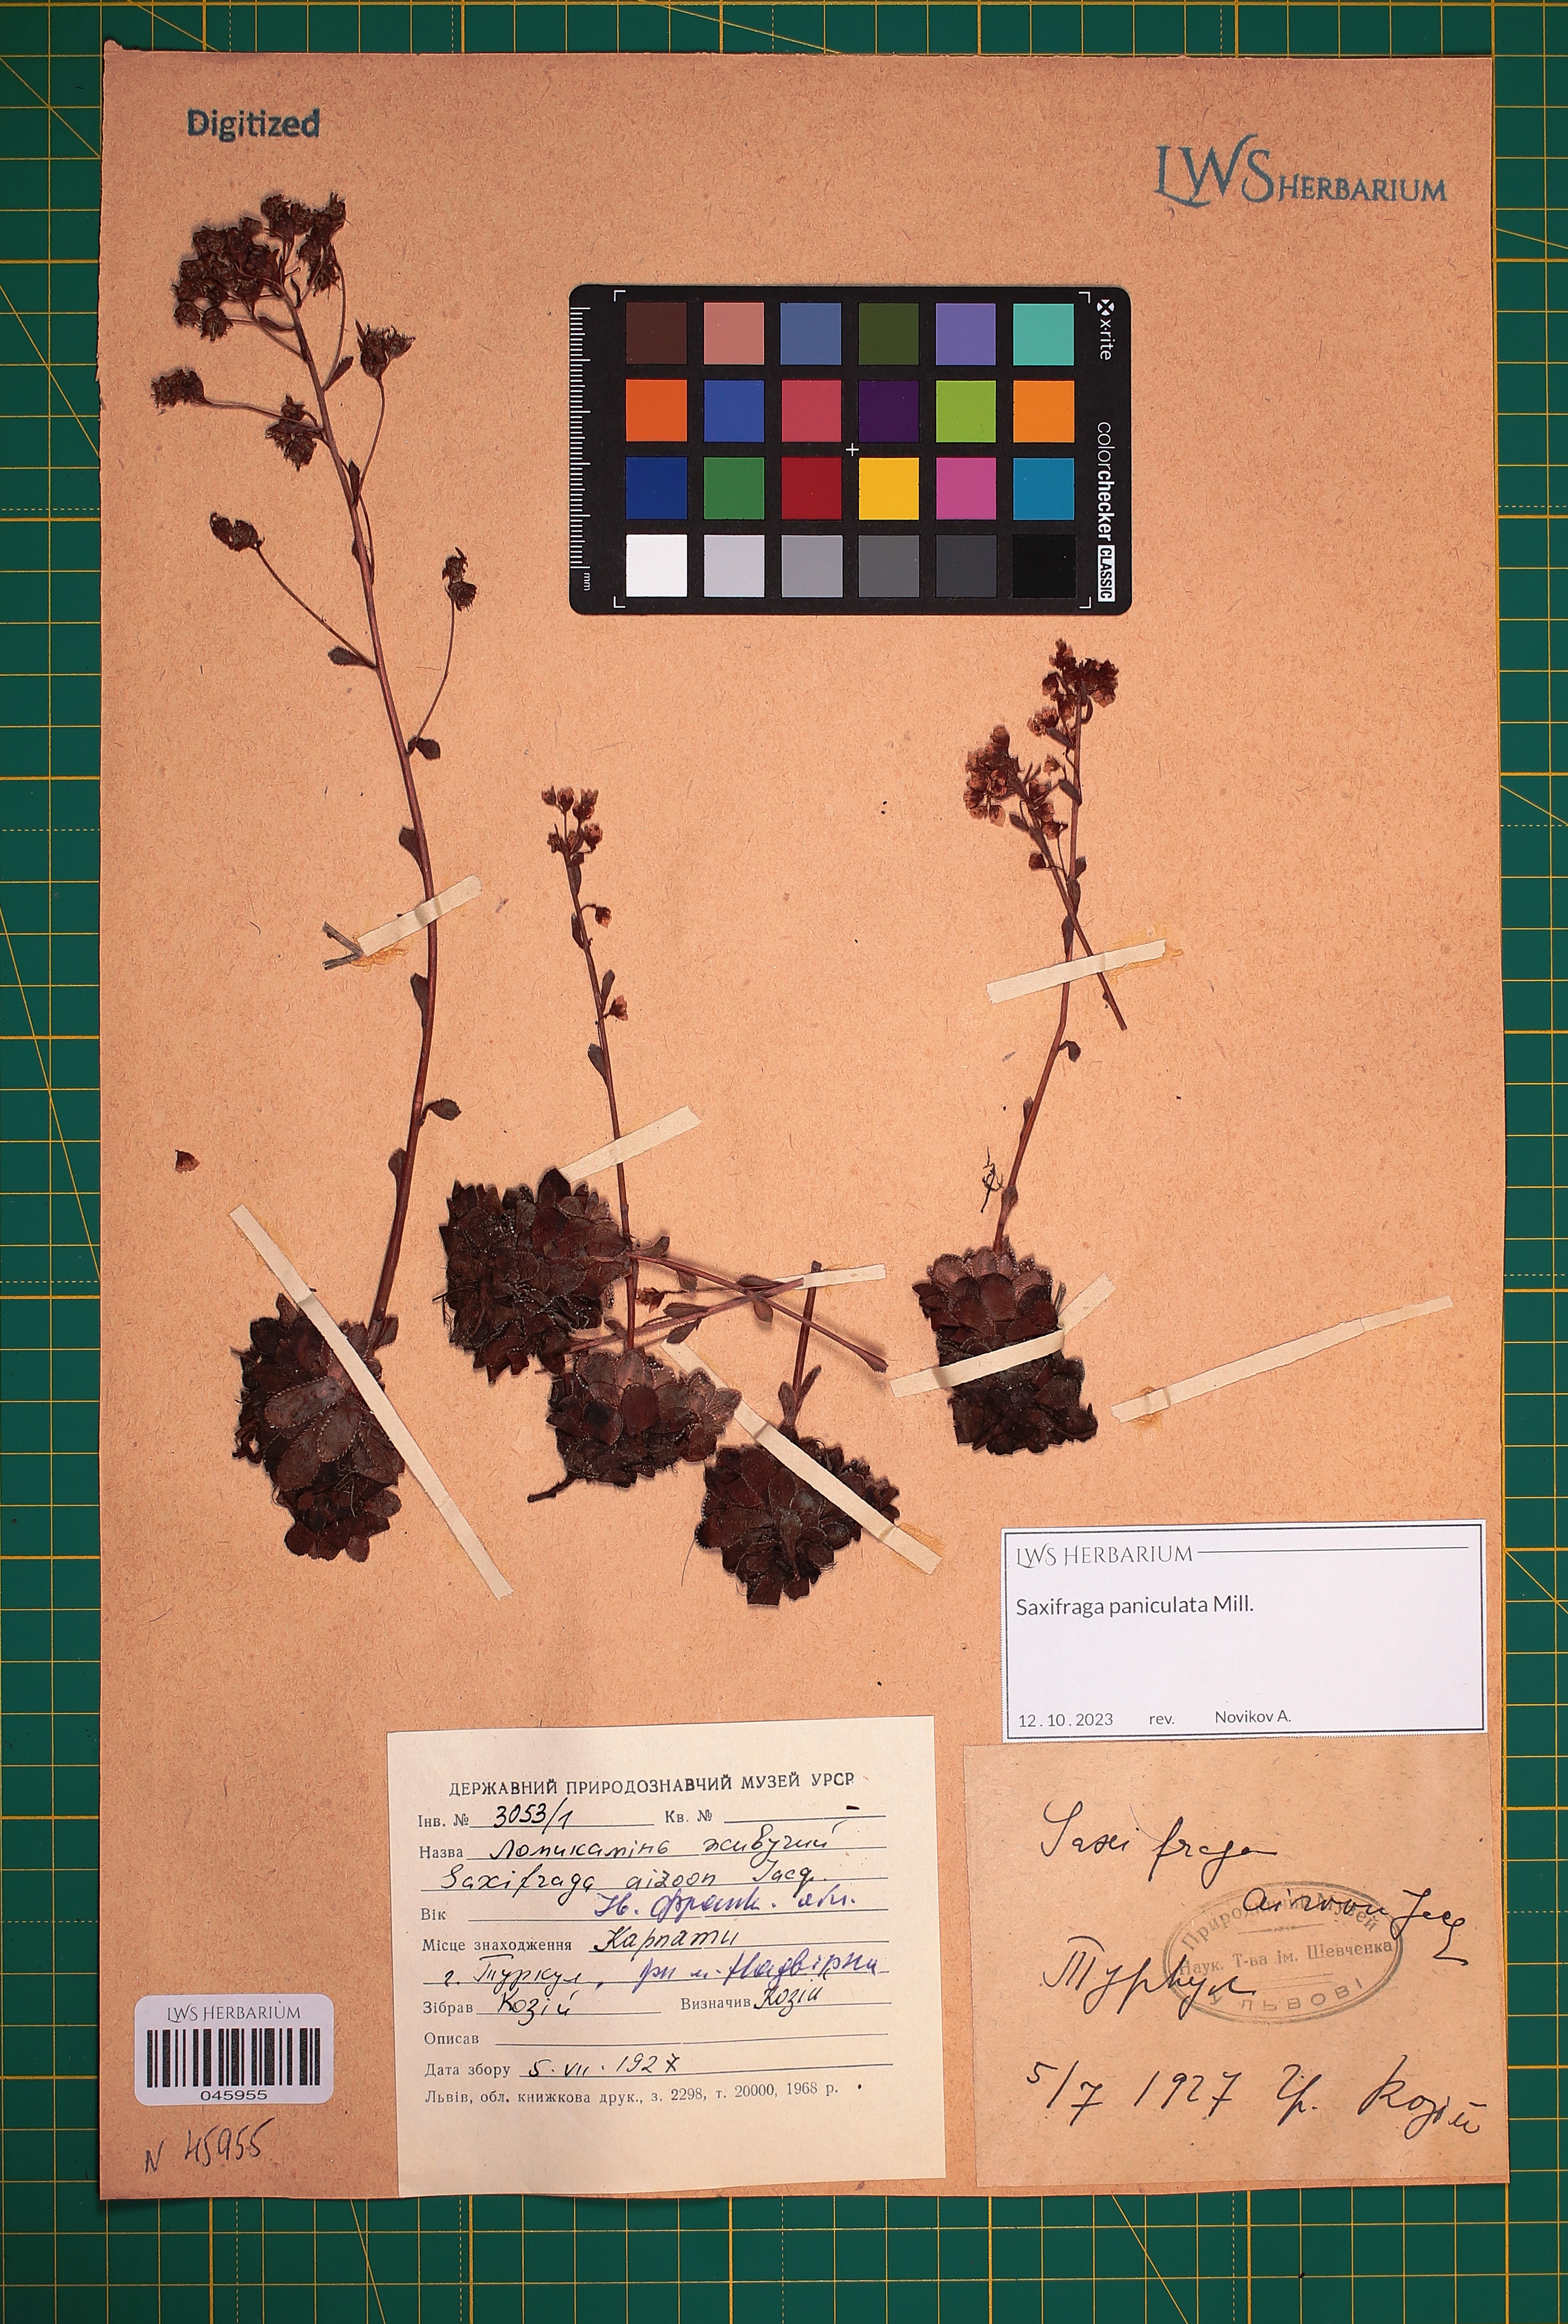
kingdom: Plantae
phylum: Tracheophyta
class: Magnoliopsida
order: Saxifragales
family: Saxifragaceae
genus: Saxifraga
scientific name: Saxifraga paniculata
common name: Livelong saxifrage
